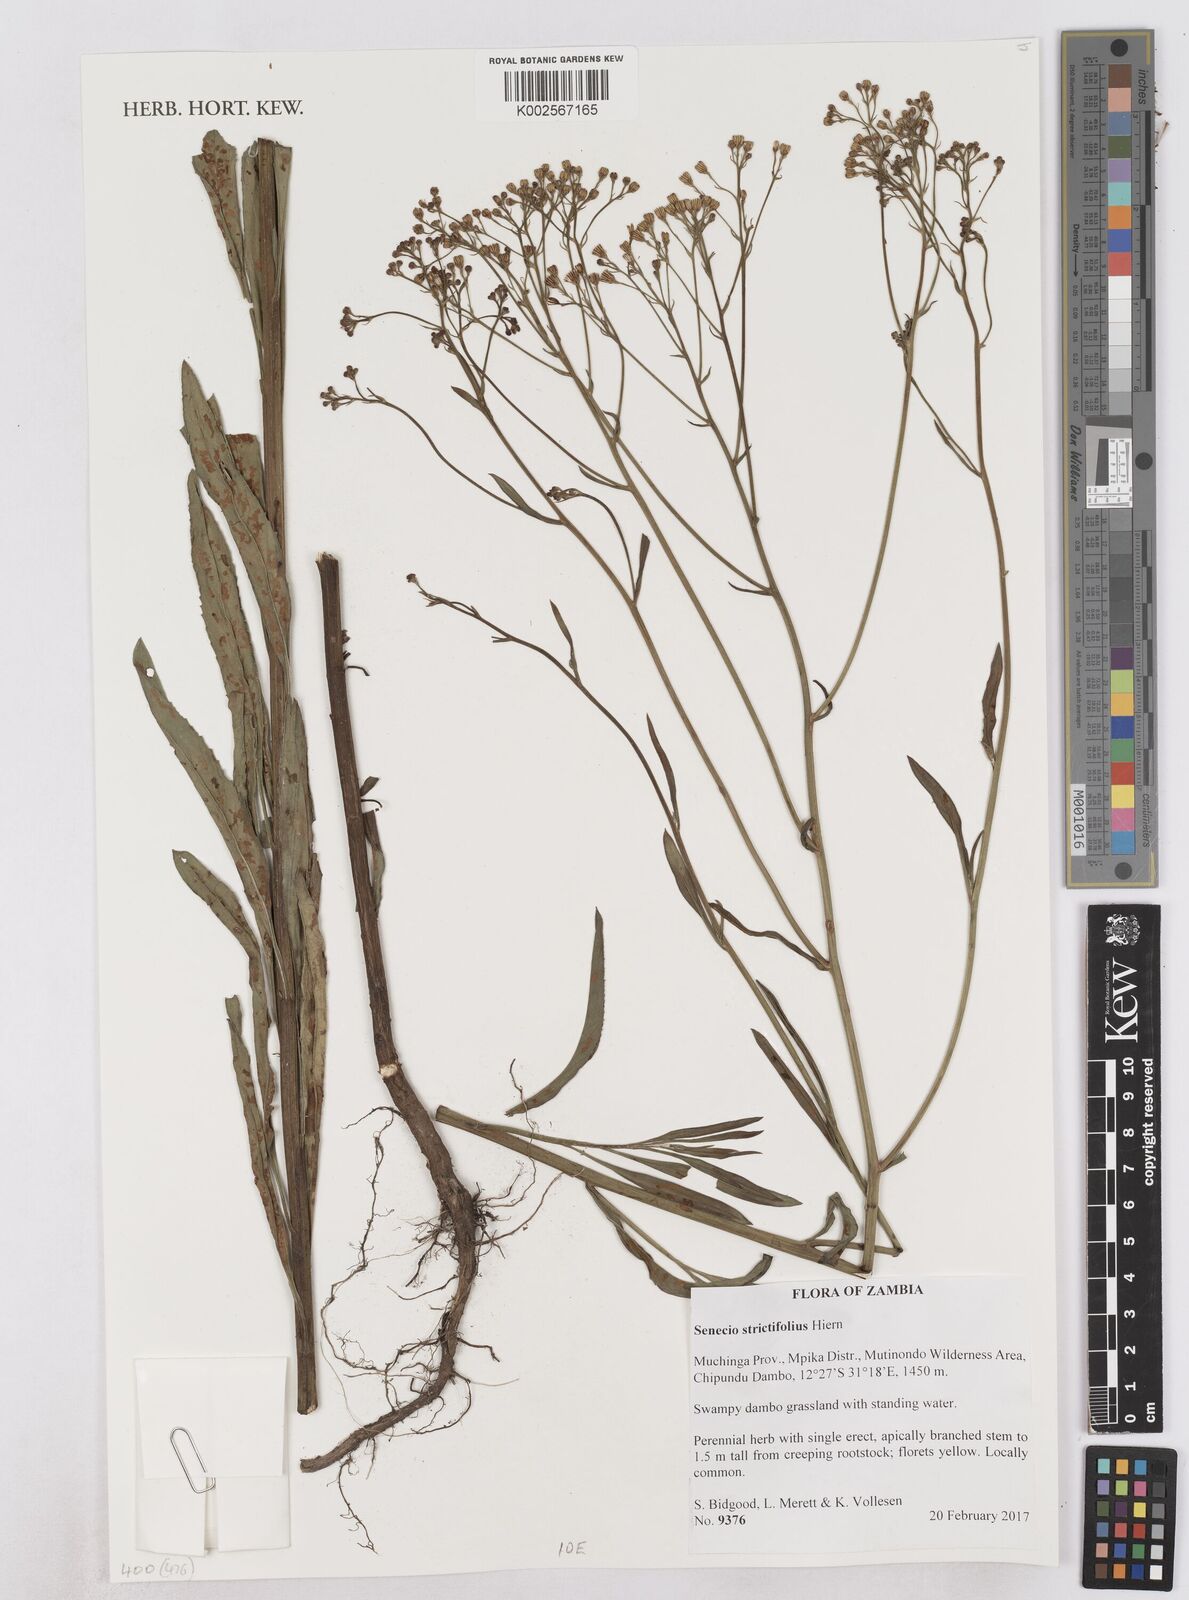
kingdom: Plantae
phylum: Tracheophyta
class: Magnoliopsida
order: Asterales
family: Asteraceae
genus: Senecio
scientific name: Senecio strictifolius
